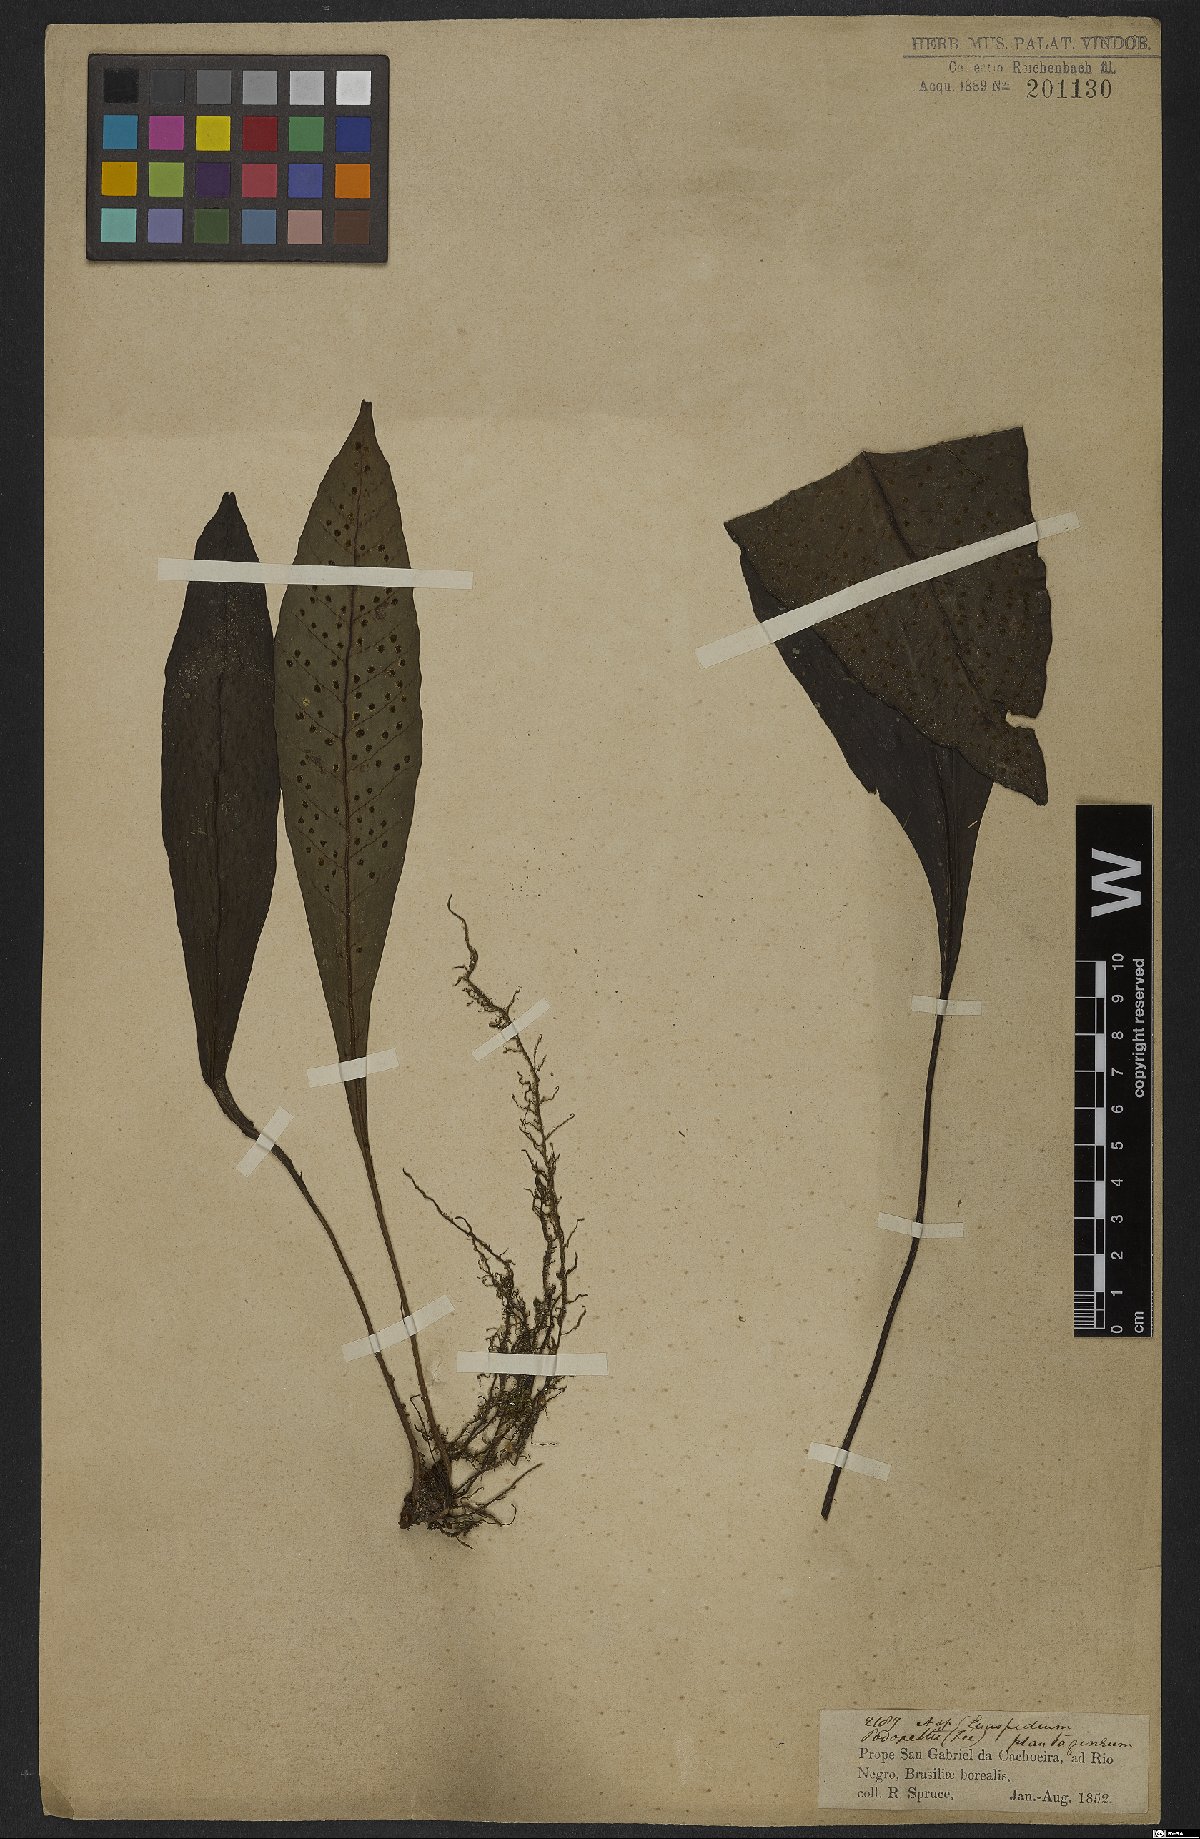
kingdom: Plantae
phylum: Tracheophyta
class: Polypodiopsida
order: Polypodiales
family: Lomariopsidaceae
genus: Dracoglossum
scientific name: Dracoglossum plantagineum
